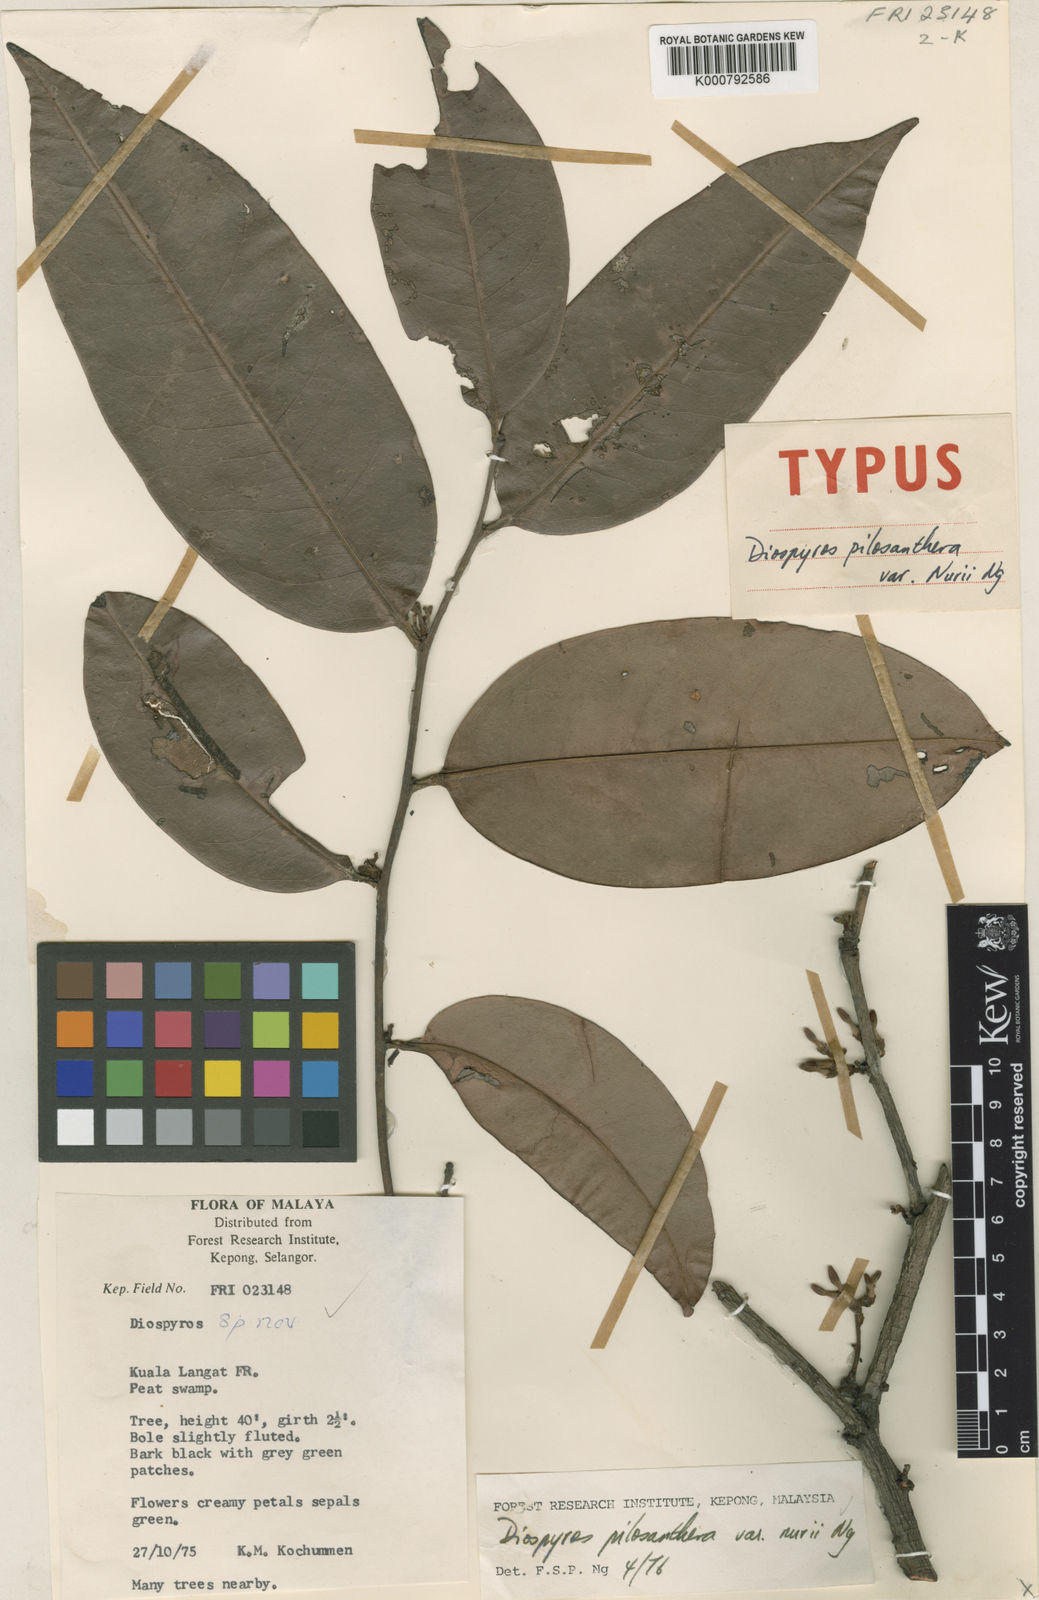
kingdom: Plantae
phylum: Tracheophyta
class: Magnoliopsida
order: Ericales
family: Ebenaceae
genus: Diospyros
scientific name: Diospyros oblonga
